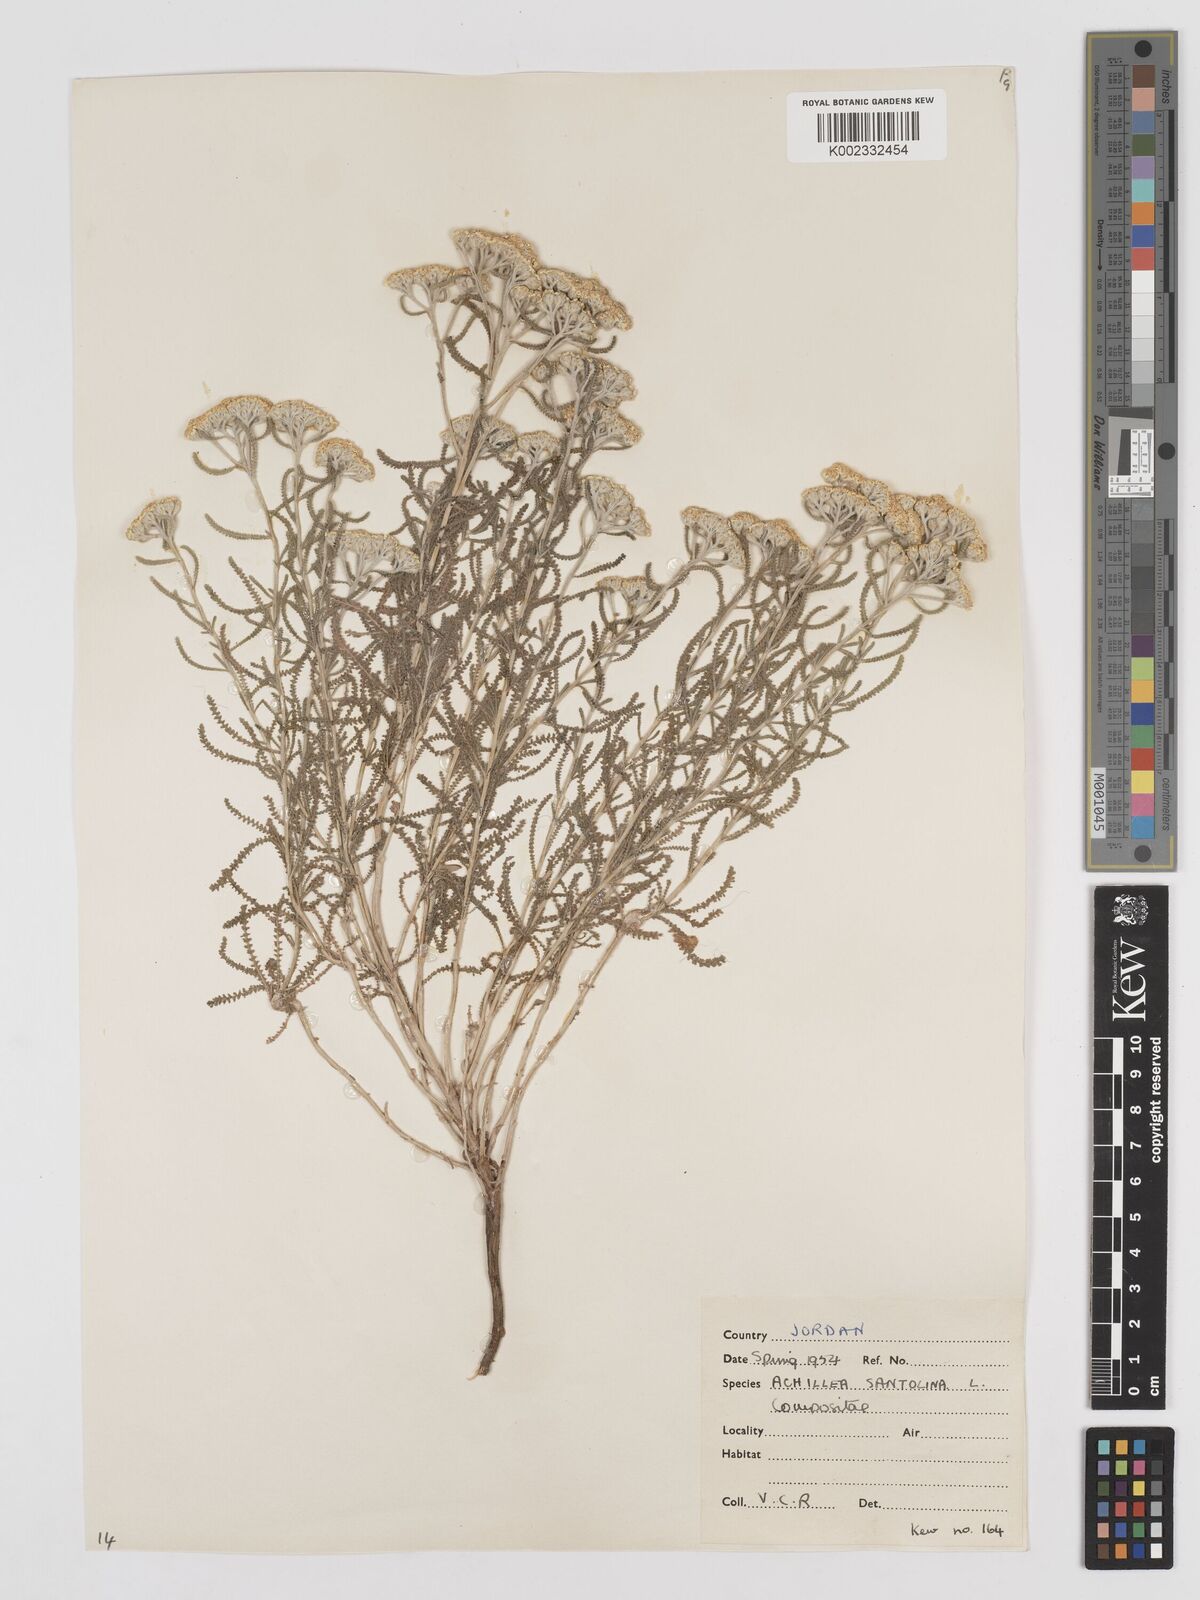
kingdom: Plantae
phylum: Tracheophyta
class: Magnoliopsida
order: Asterales
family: Asteraceae
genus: Achillea
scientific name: Achillea tenuifolia
